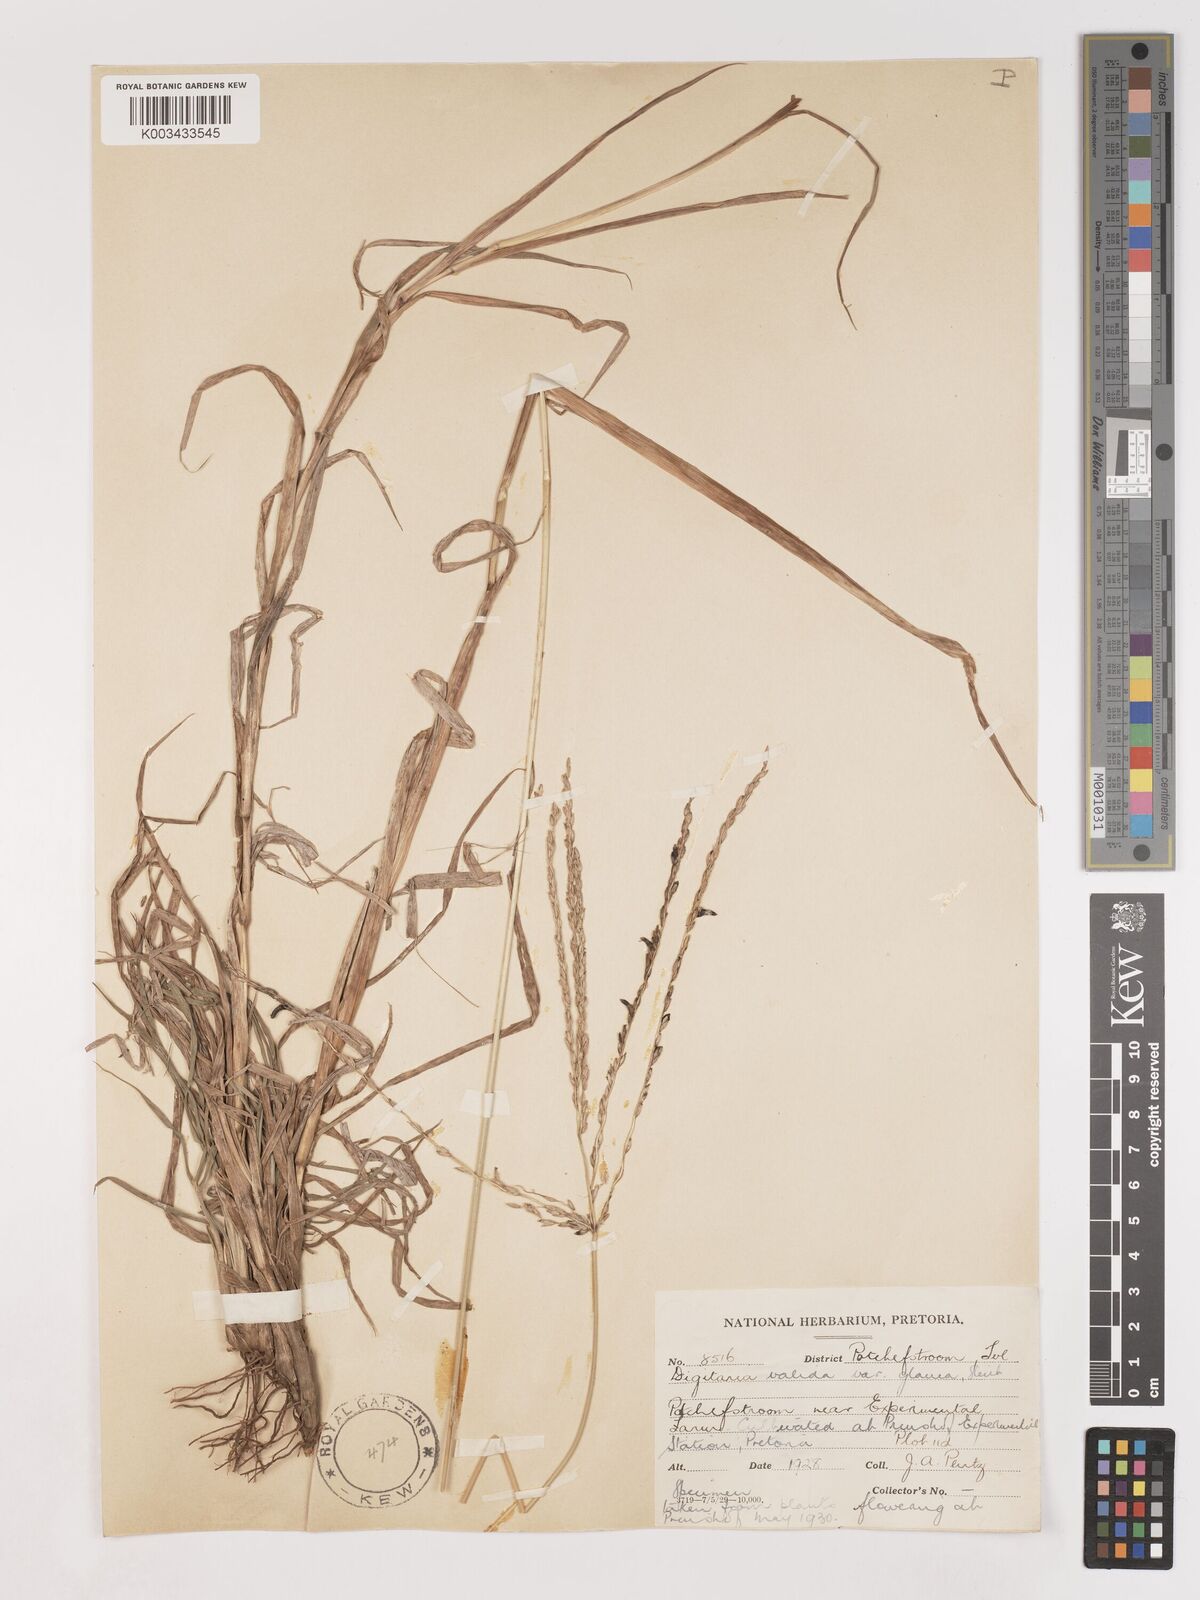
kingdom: Plantae
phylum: Tracheophyta
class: Liliopsida
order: Poales
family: Poaceae
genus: Digitaria
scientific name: Digitaria eriantha
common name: Digitgrass
